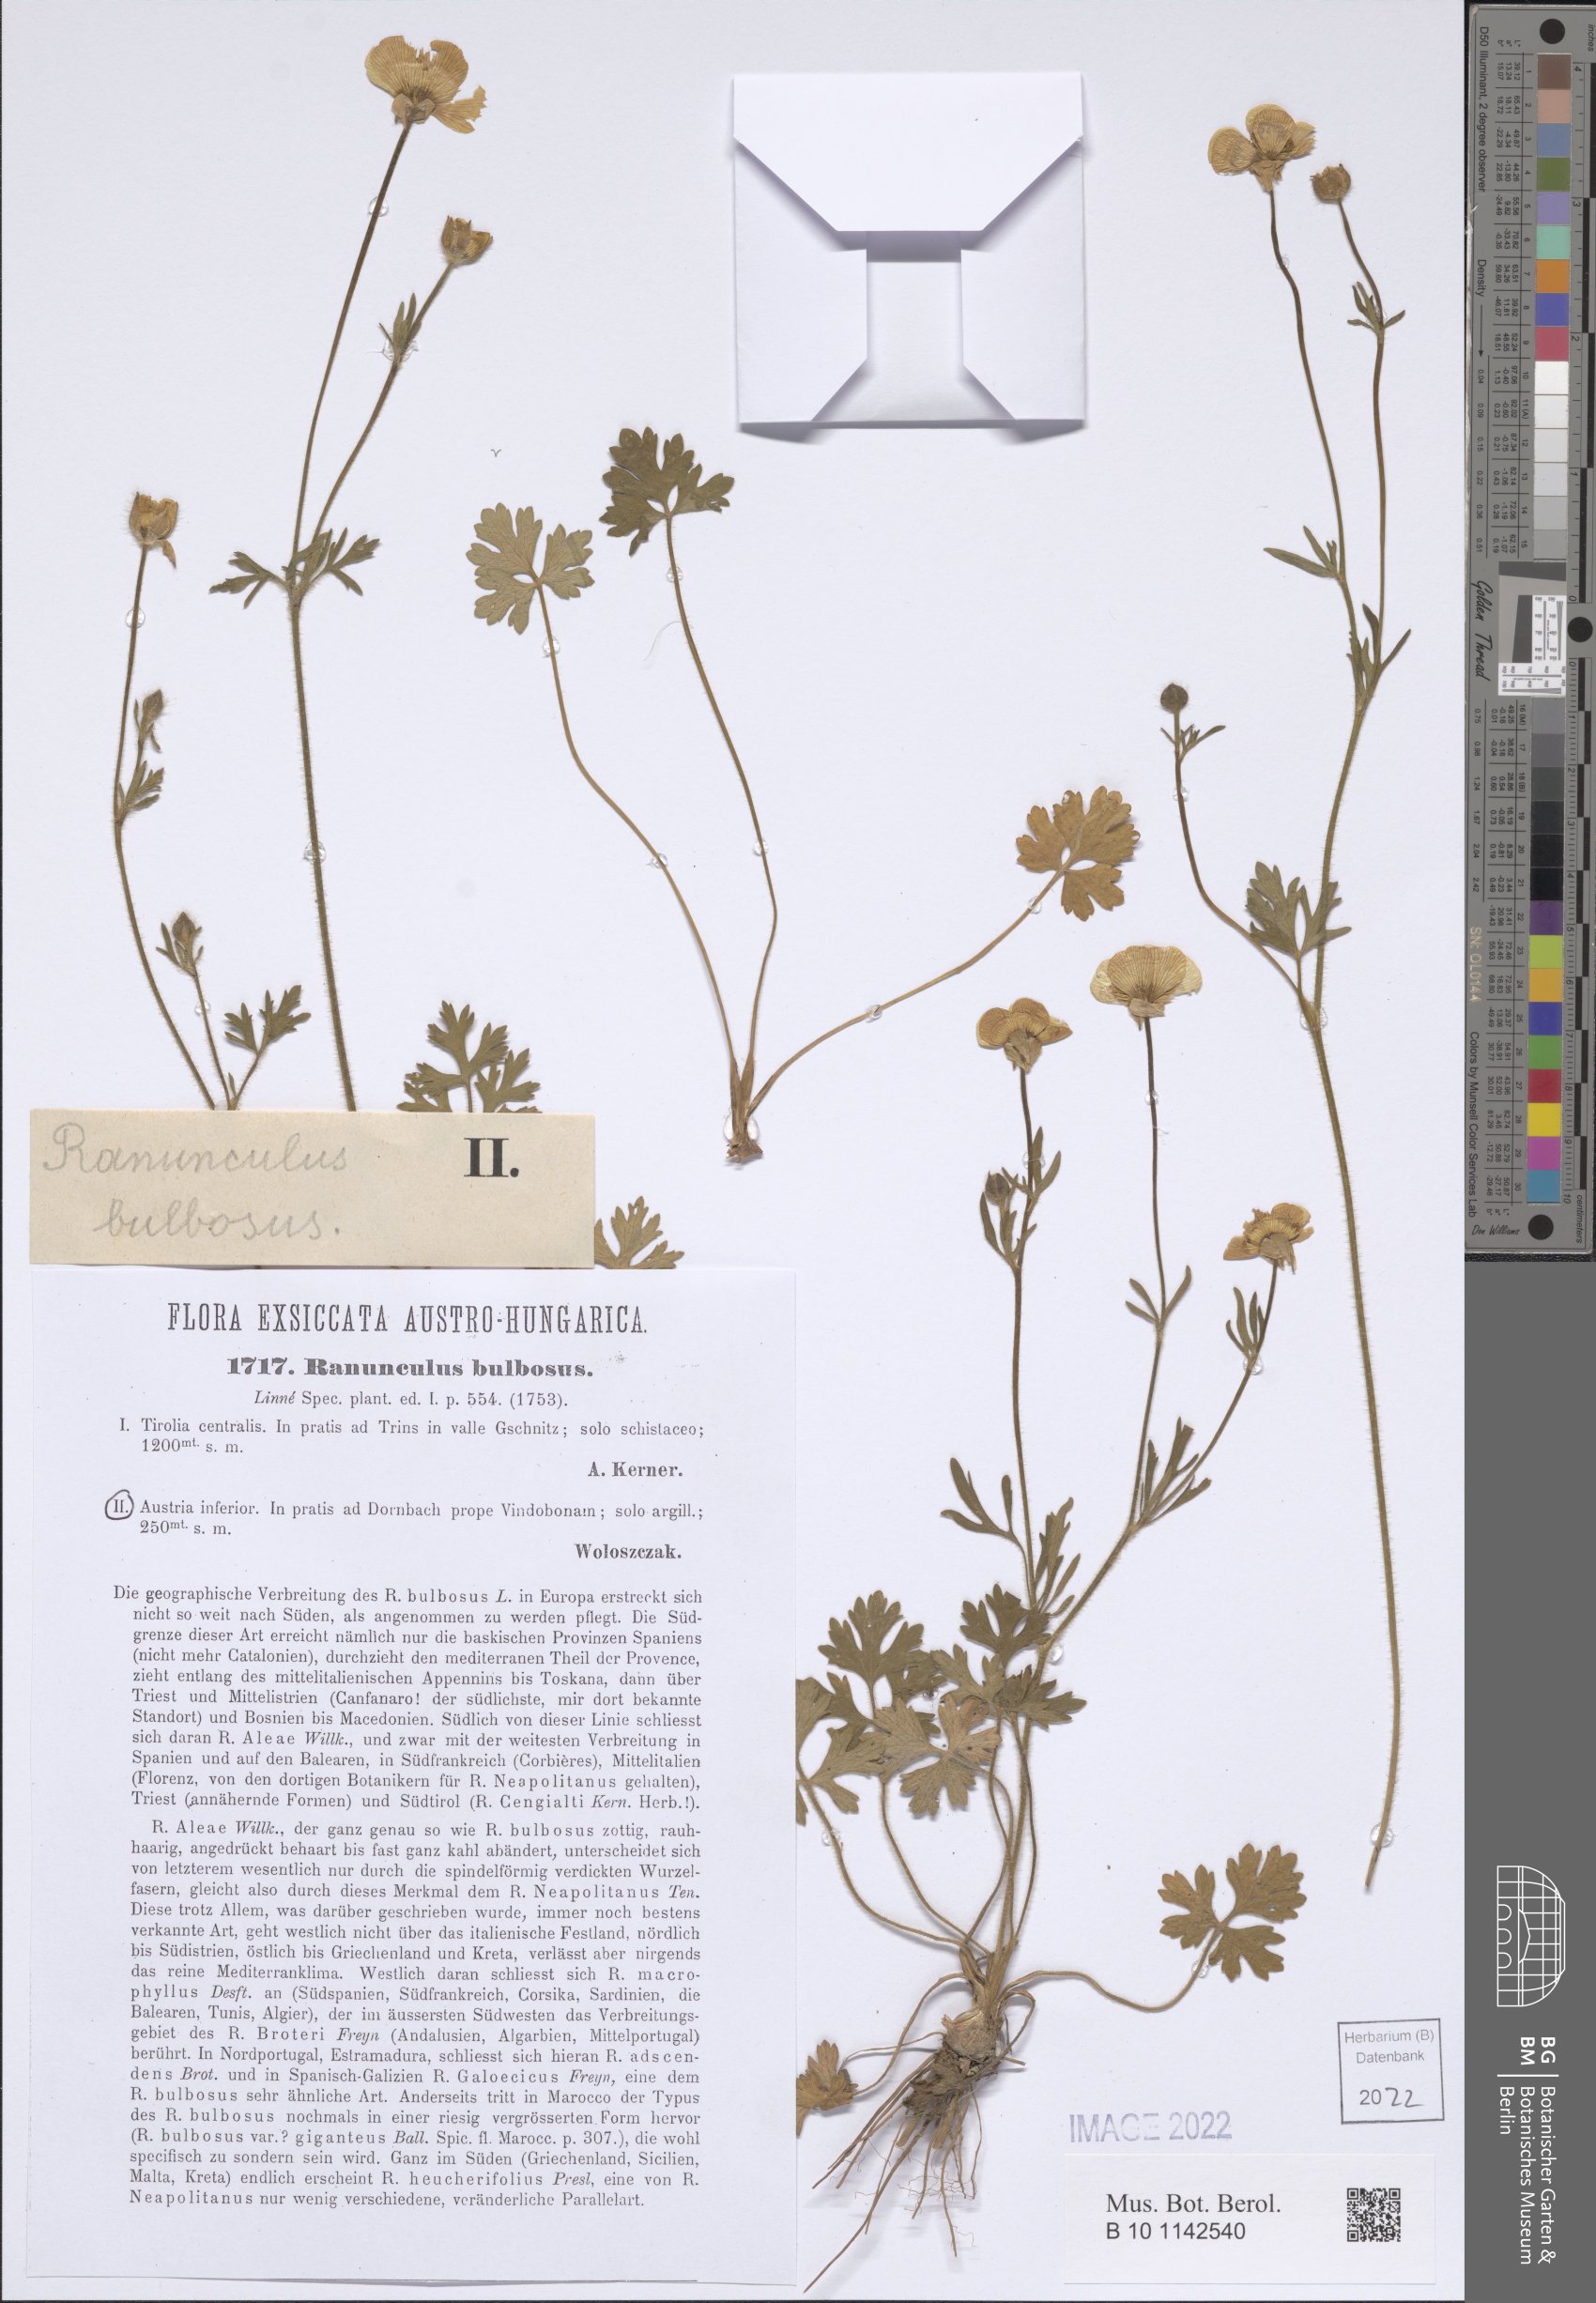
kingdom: Plantae
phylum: Tracheophyta
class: Magnoliopsida
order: Ranunculales
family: Ranunculaceae
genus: Ranunculus
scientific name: Ranunculus bulbosus
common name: Bulbous buttercup
